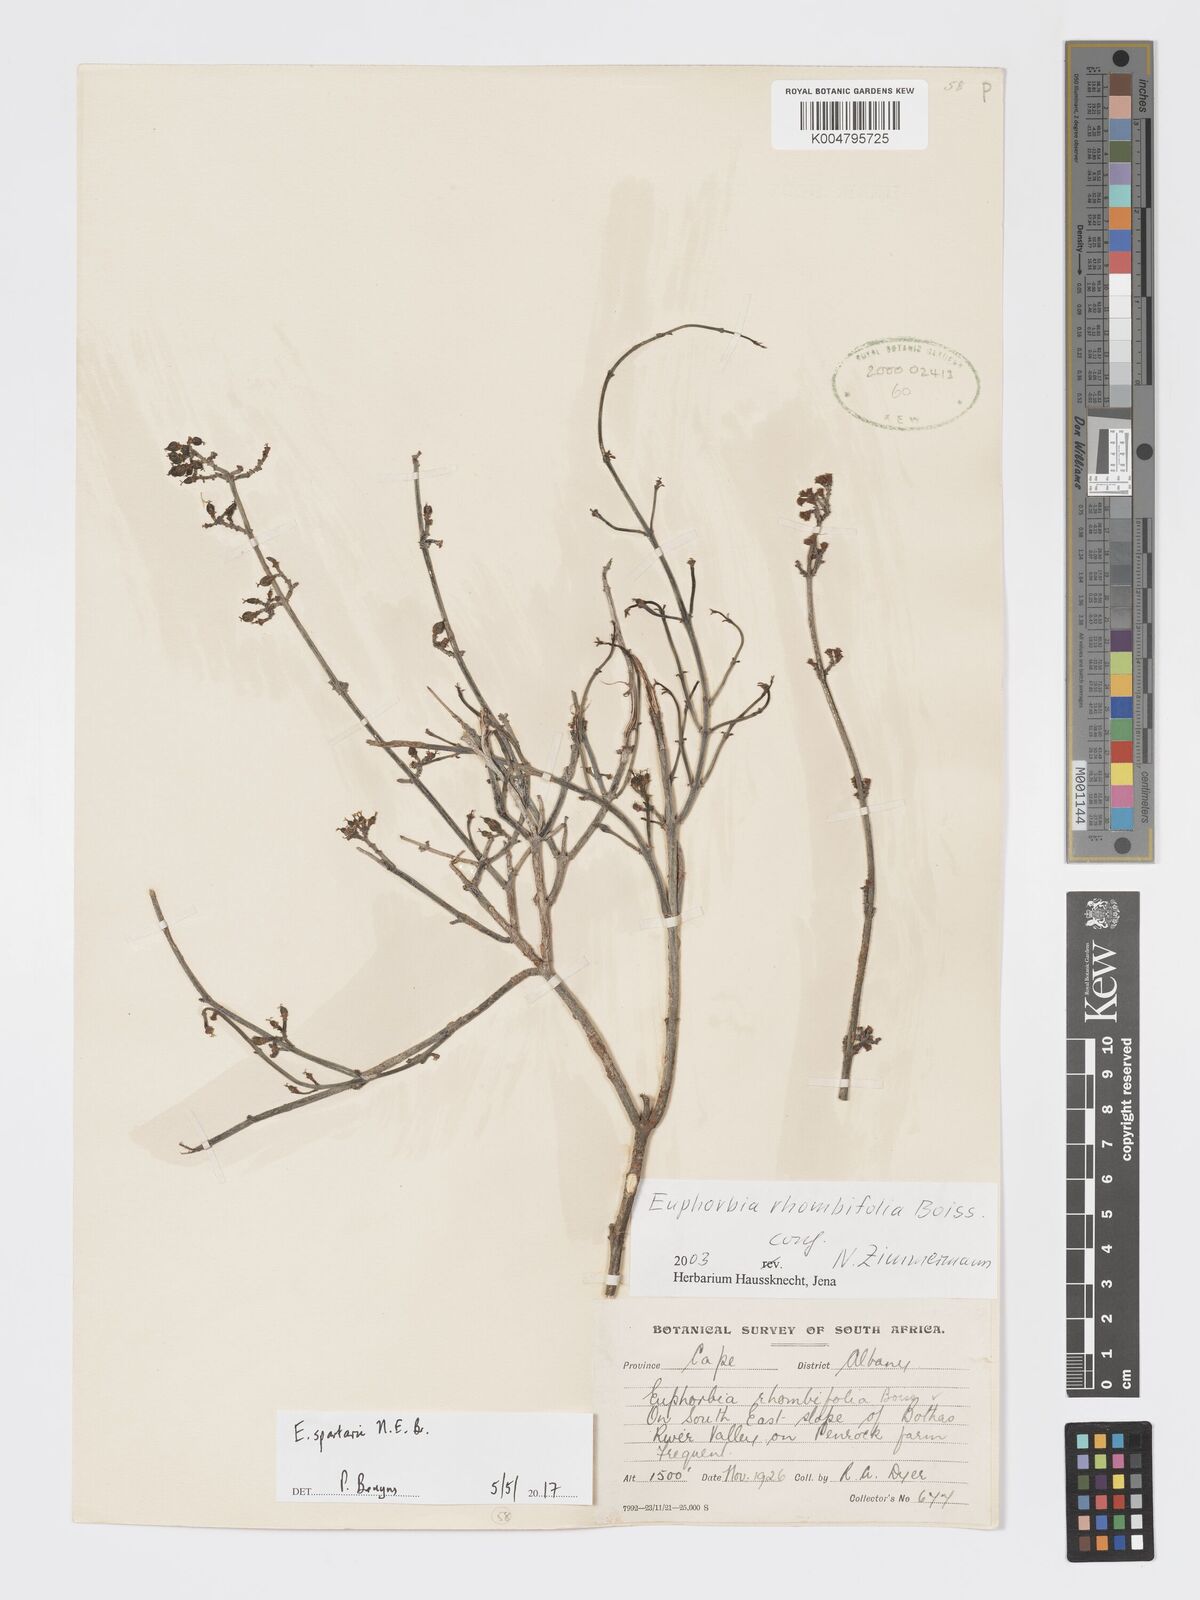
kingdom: Plantae
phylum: Tracheophyta
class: Magnoliopsida
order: Malpighiales
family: Euphorbiaceae
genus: Euphorbia
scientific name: Euphorbia spartaria
